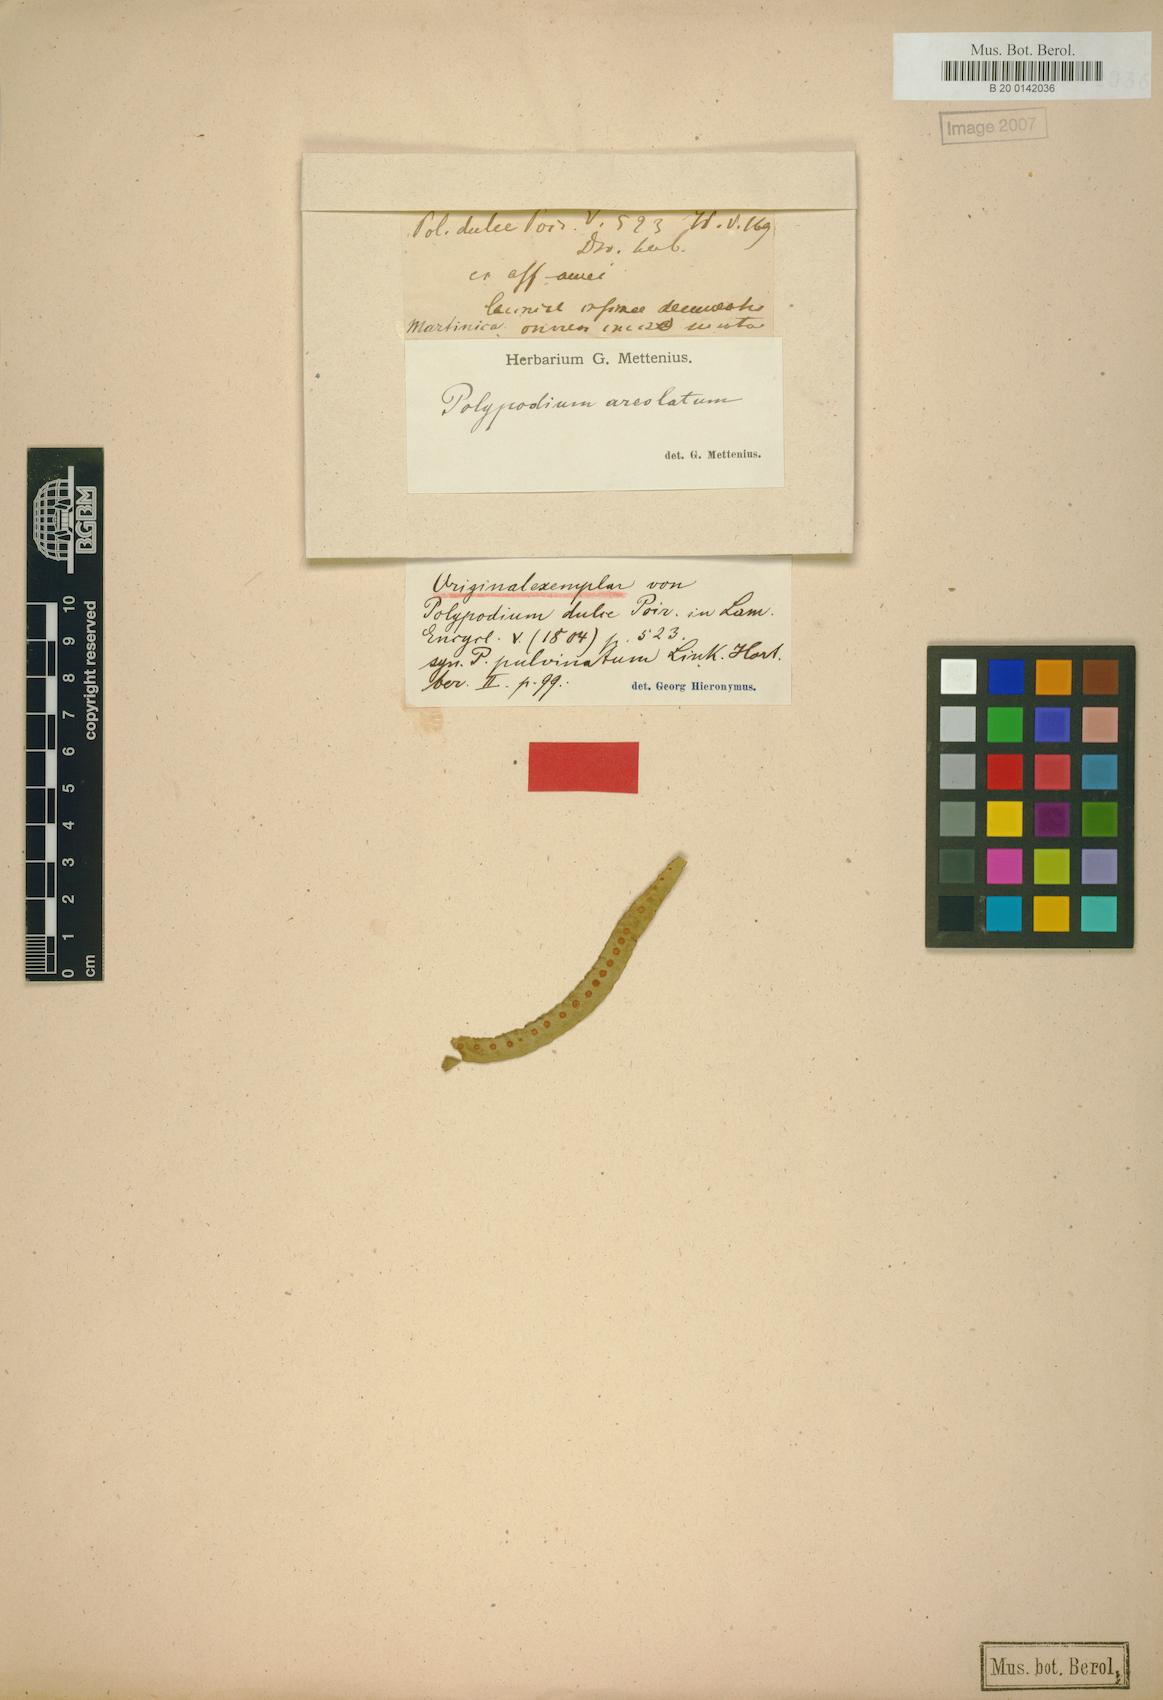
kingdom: Plantae
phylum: Tracheophyta
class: Polypodiopsida
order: Polypodiales
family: Polypodiaceae
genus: Pecluma
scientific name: Pecluma dulcis
